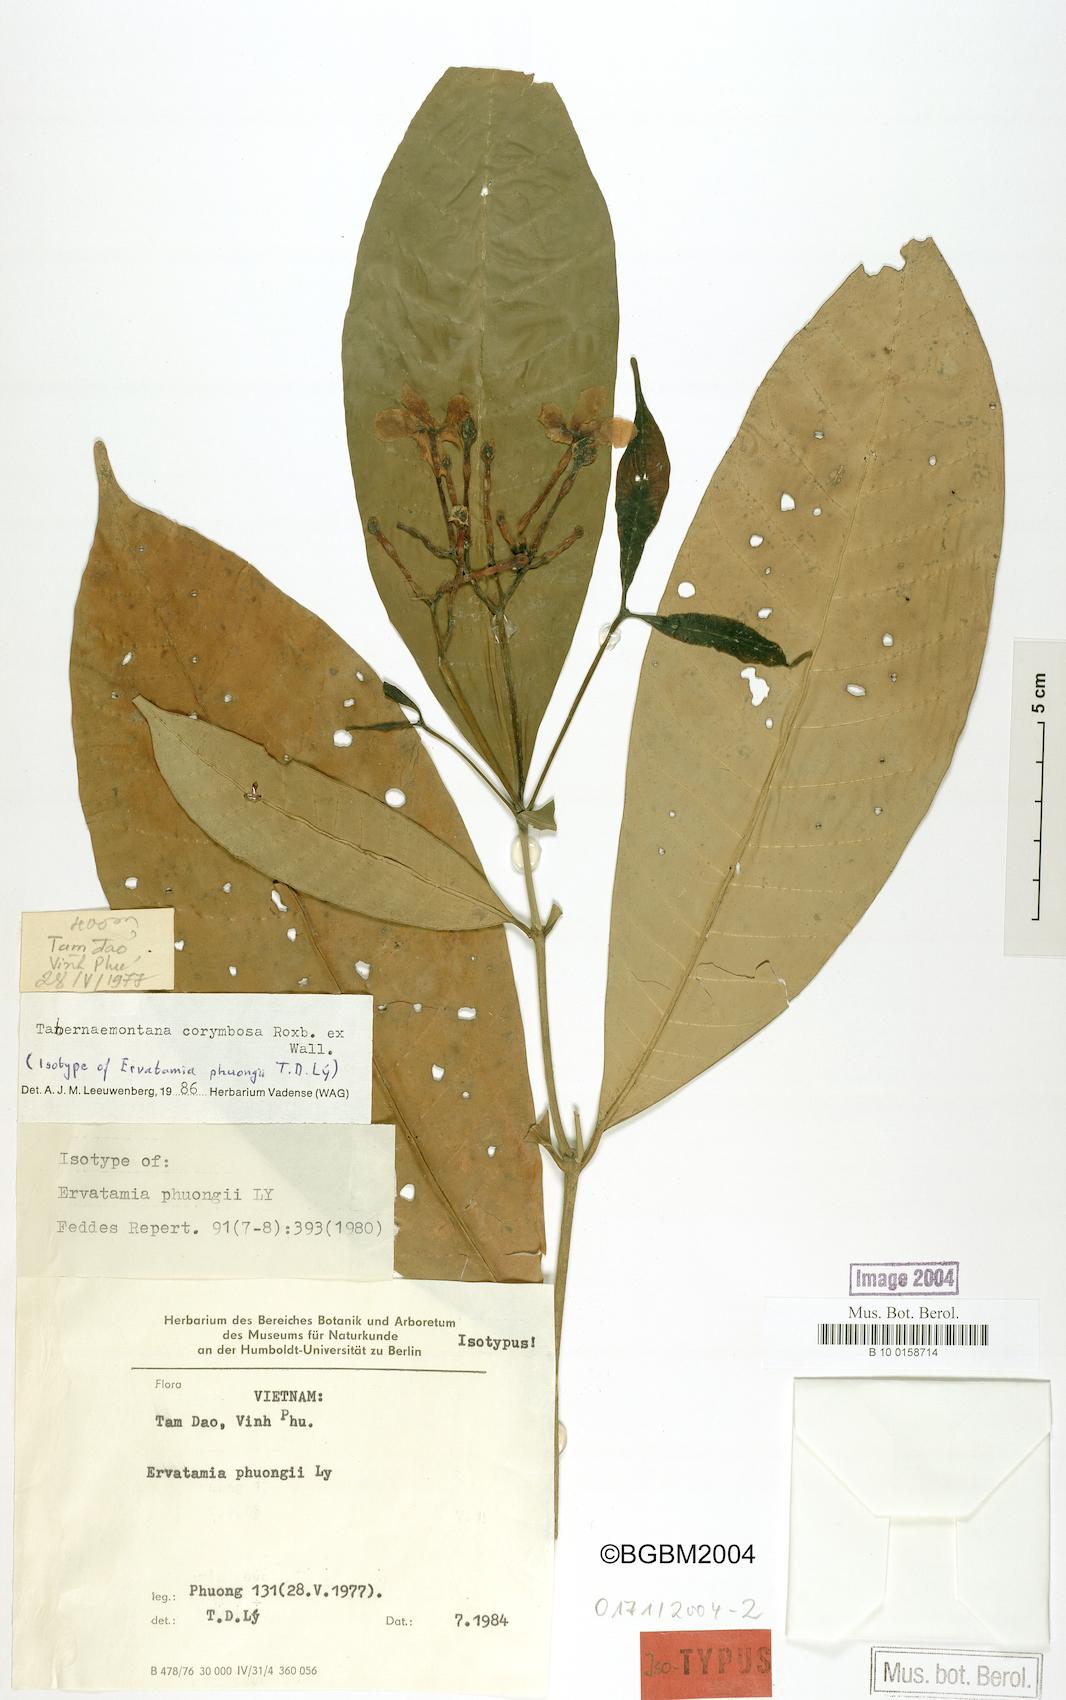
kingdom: Plantae
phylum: Tracheophyta
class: Magnoliopsida
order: Gentianales
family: Apocynaceae
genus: Tabernaemontana
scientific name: Tabernaemontana corymbosa
